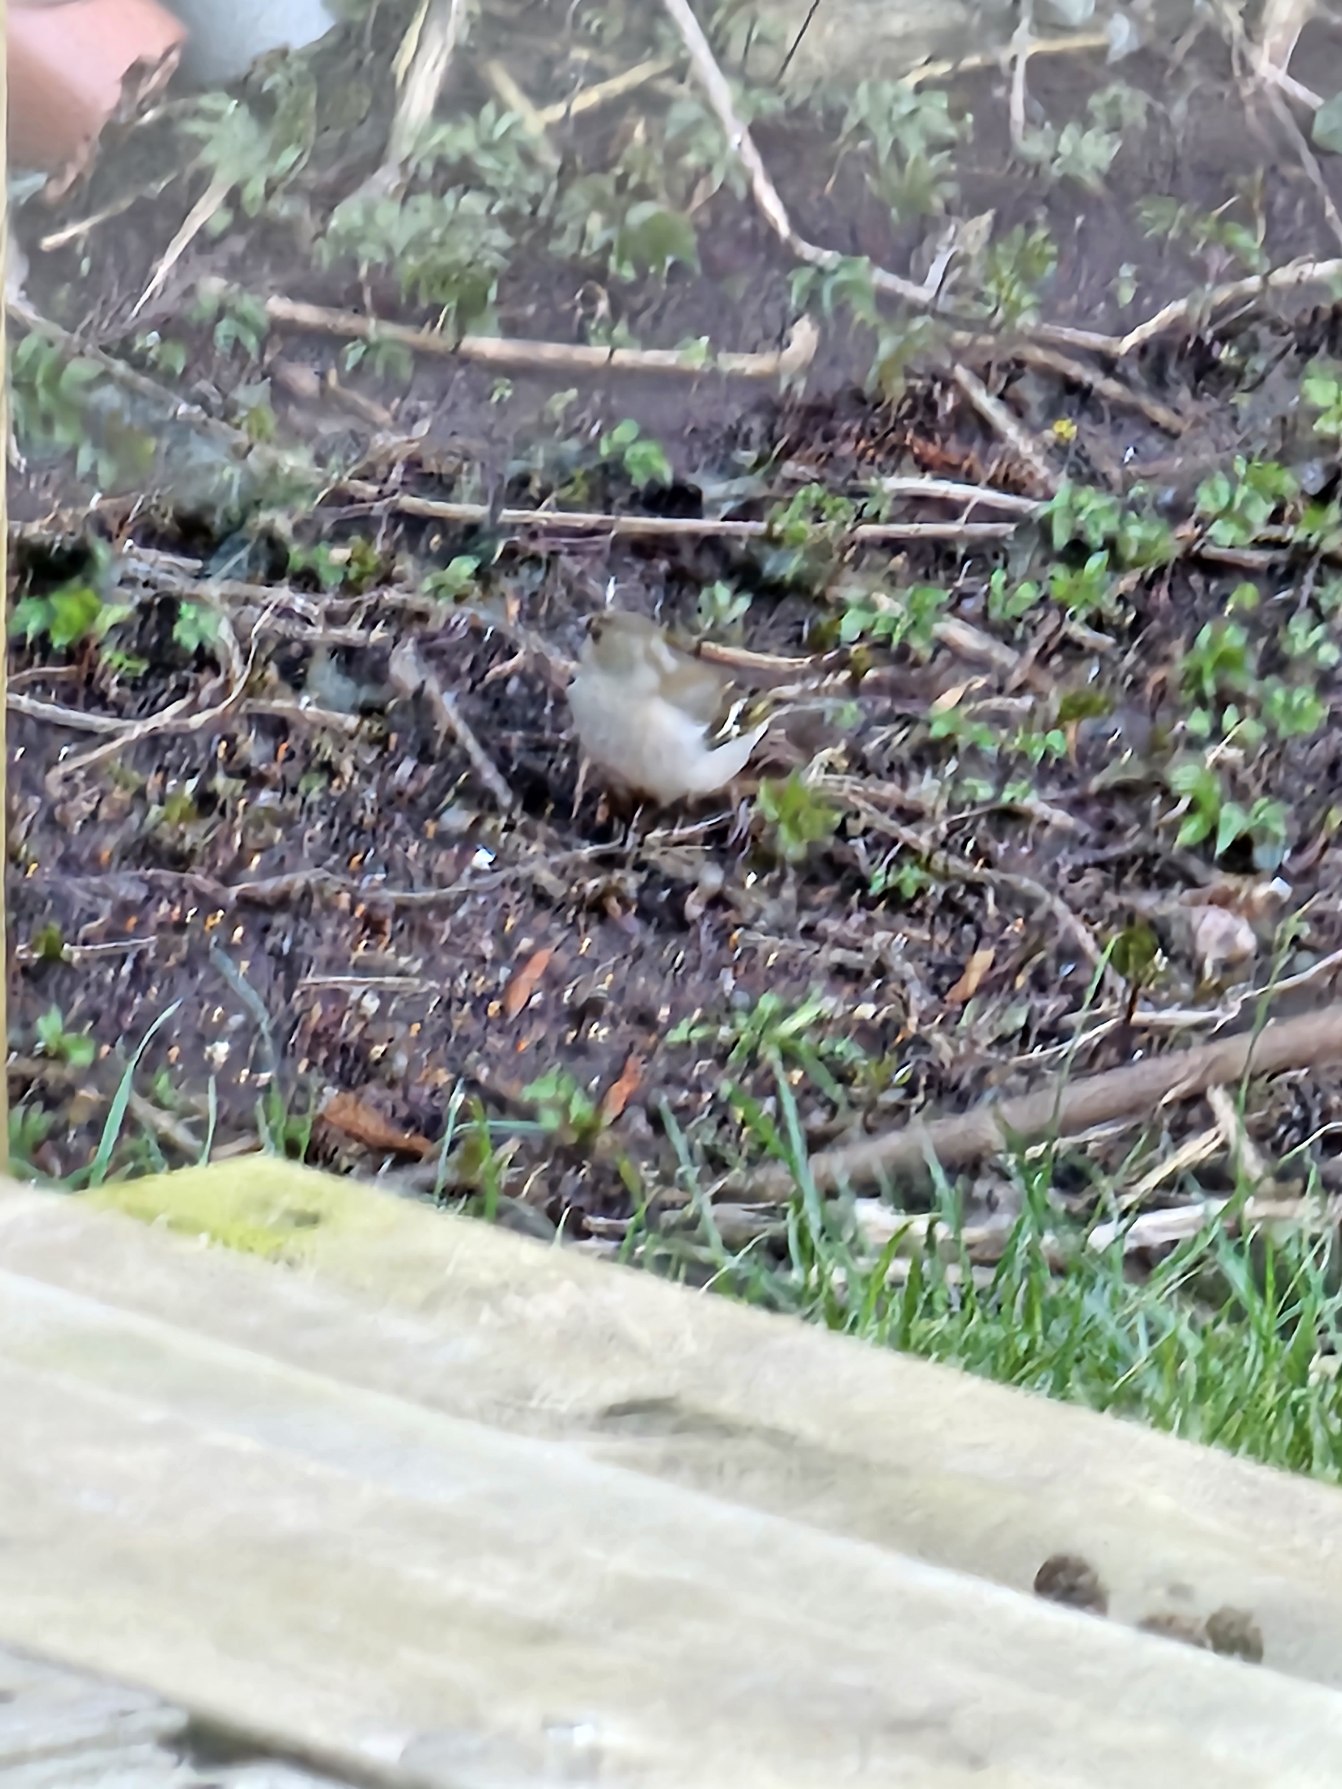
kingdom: Animalia
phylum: Chordata
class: Aves
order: Passeriformes
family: Fringillidae
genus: Fringilla
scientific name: Fringilla coelebs
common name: Bogfinke
